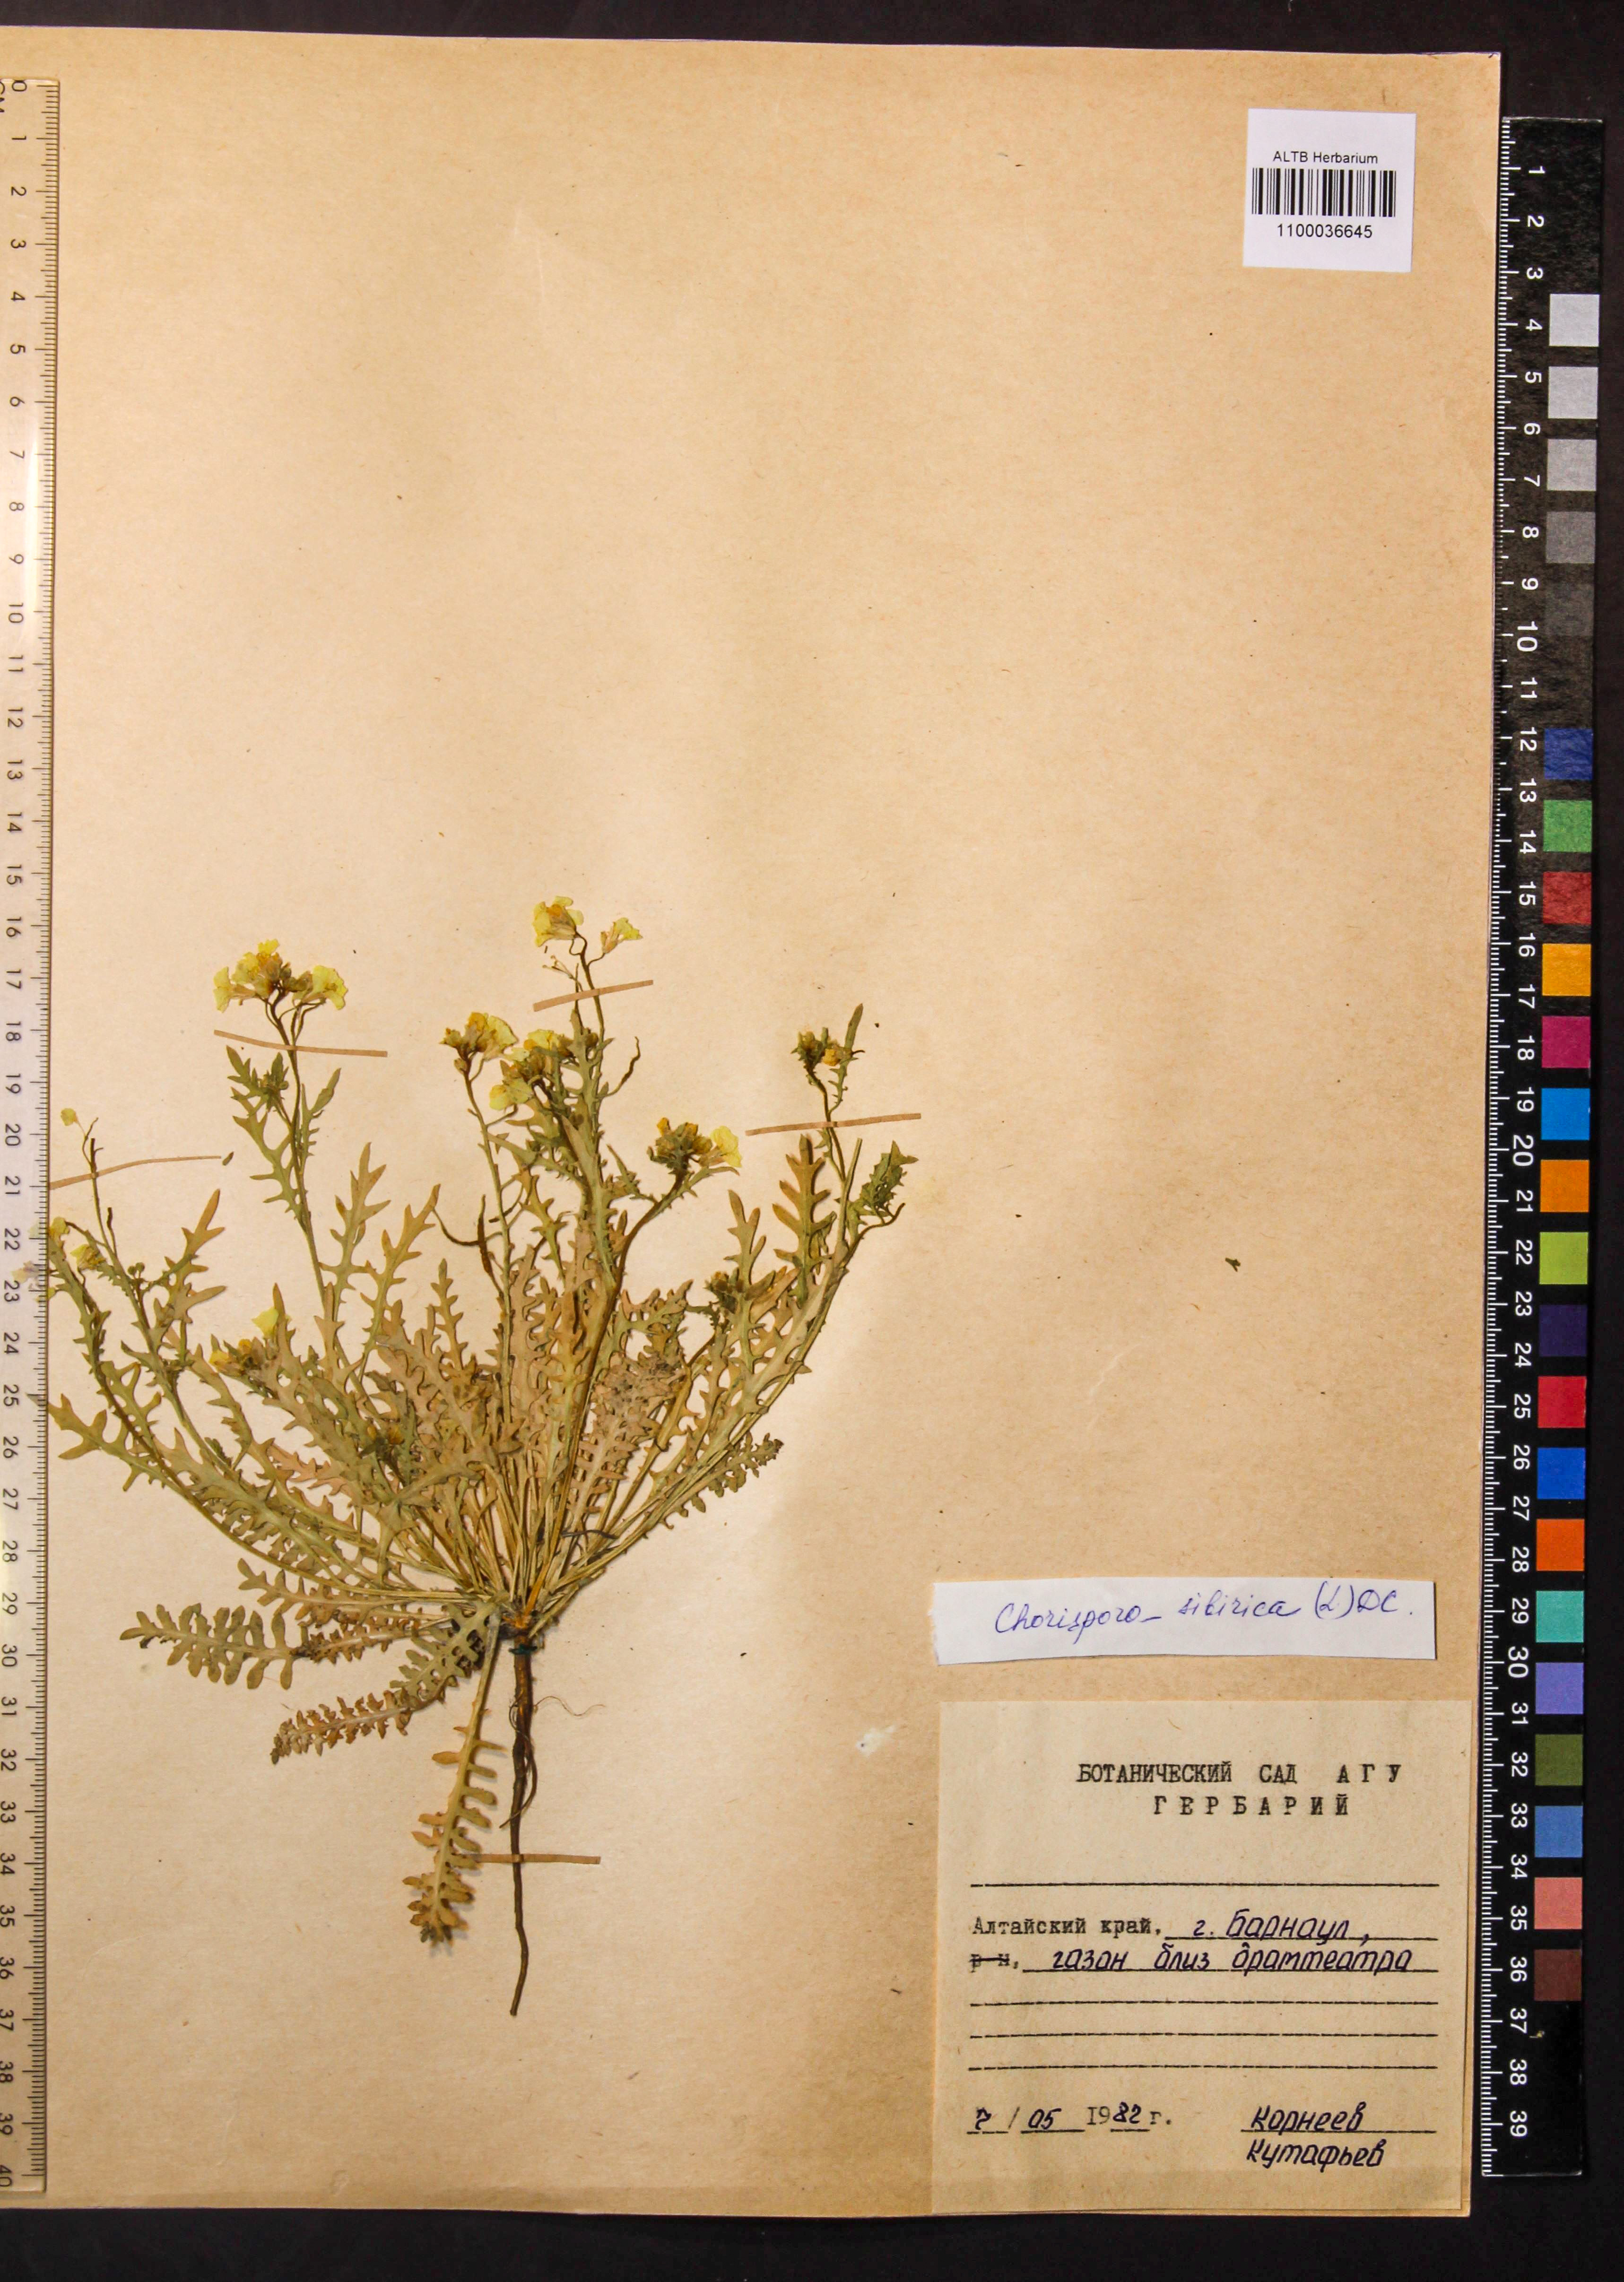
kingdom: Plantae
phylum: Tracheophyta
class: Magnoliopsida
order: Brassicales
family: Brassicaceae
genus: Chorispora
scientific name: Chorispora sibirica
